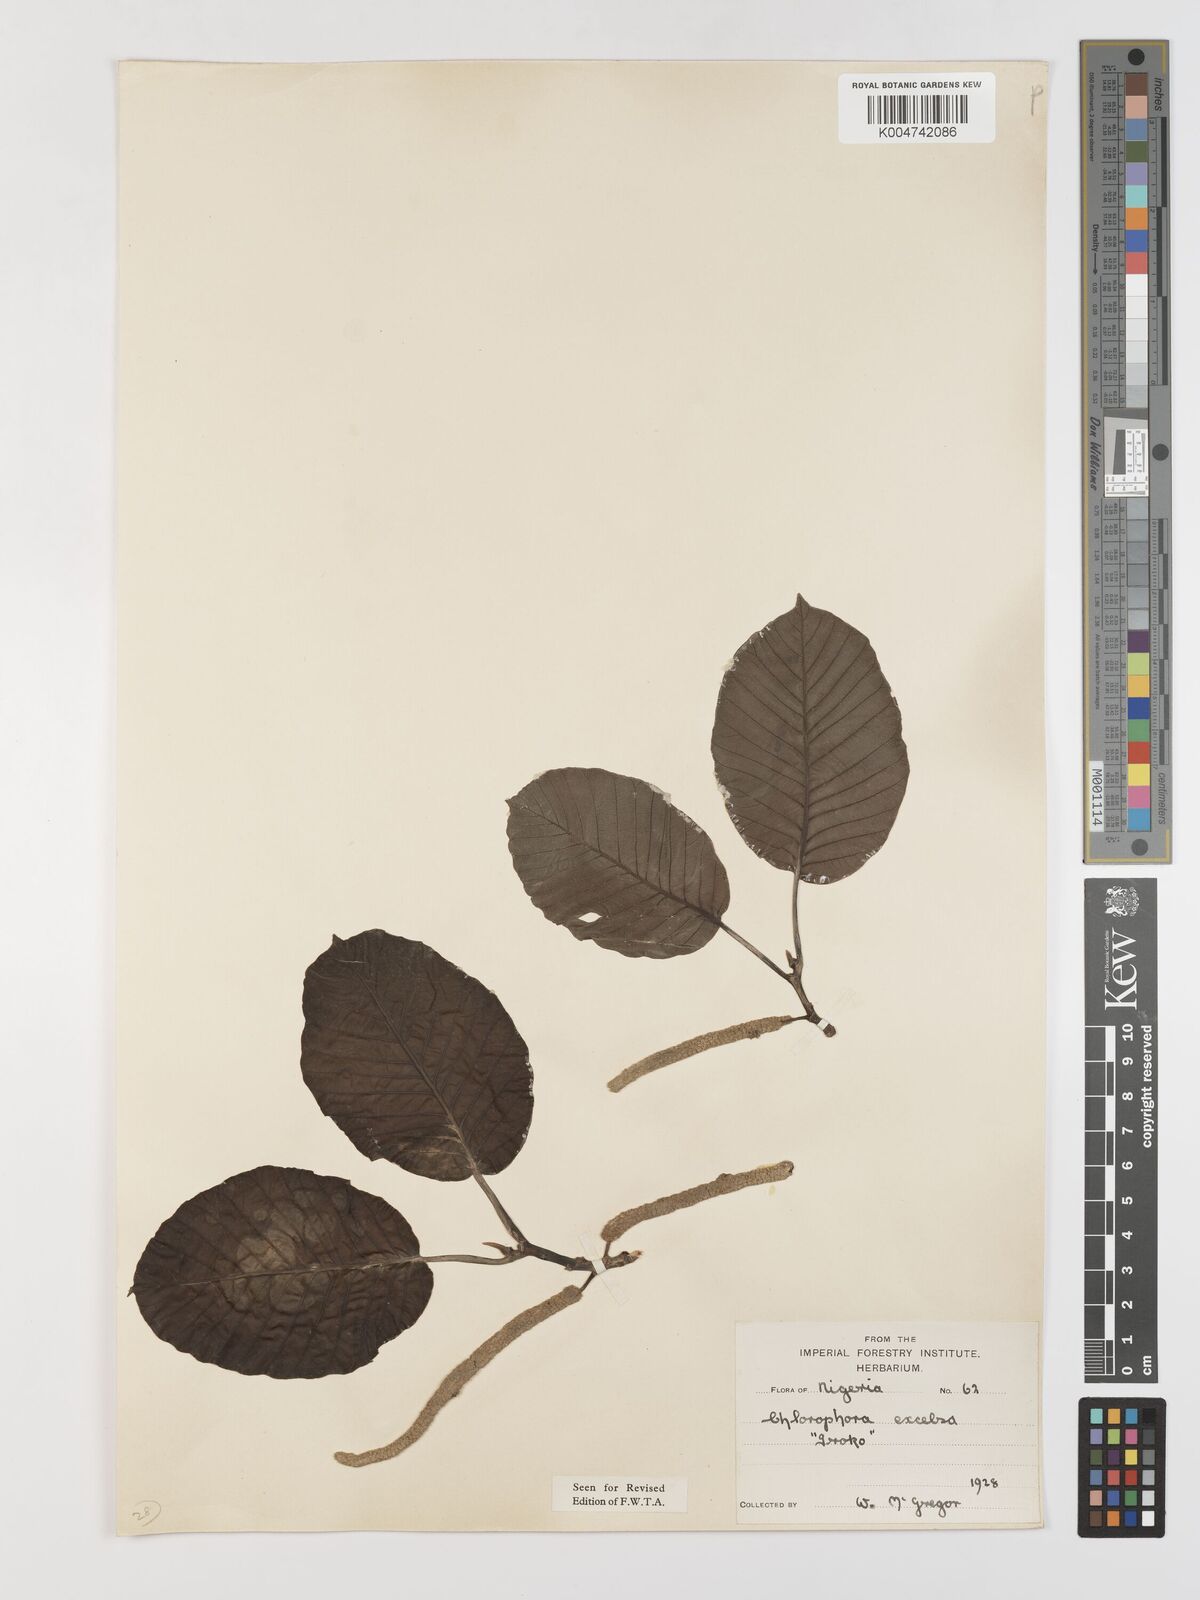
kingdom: Plantae
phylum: Tracheophyta
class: Magnoliopsida
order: Rosales
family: Moraceae
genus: Milicia
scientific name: Milicia excelsa
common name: African teak
